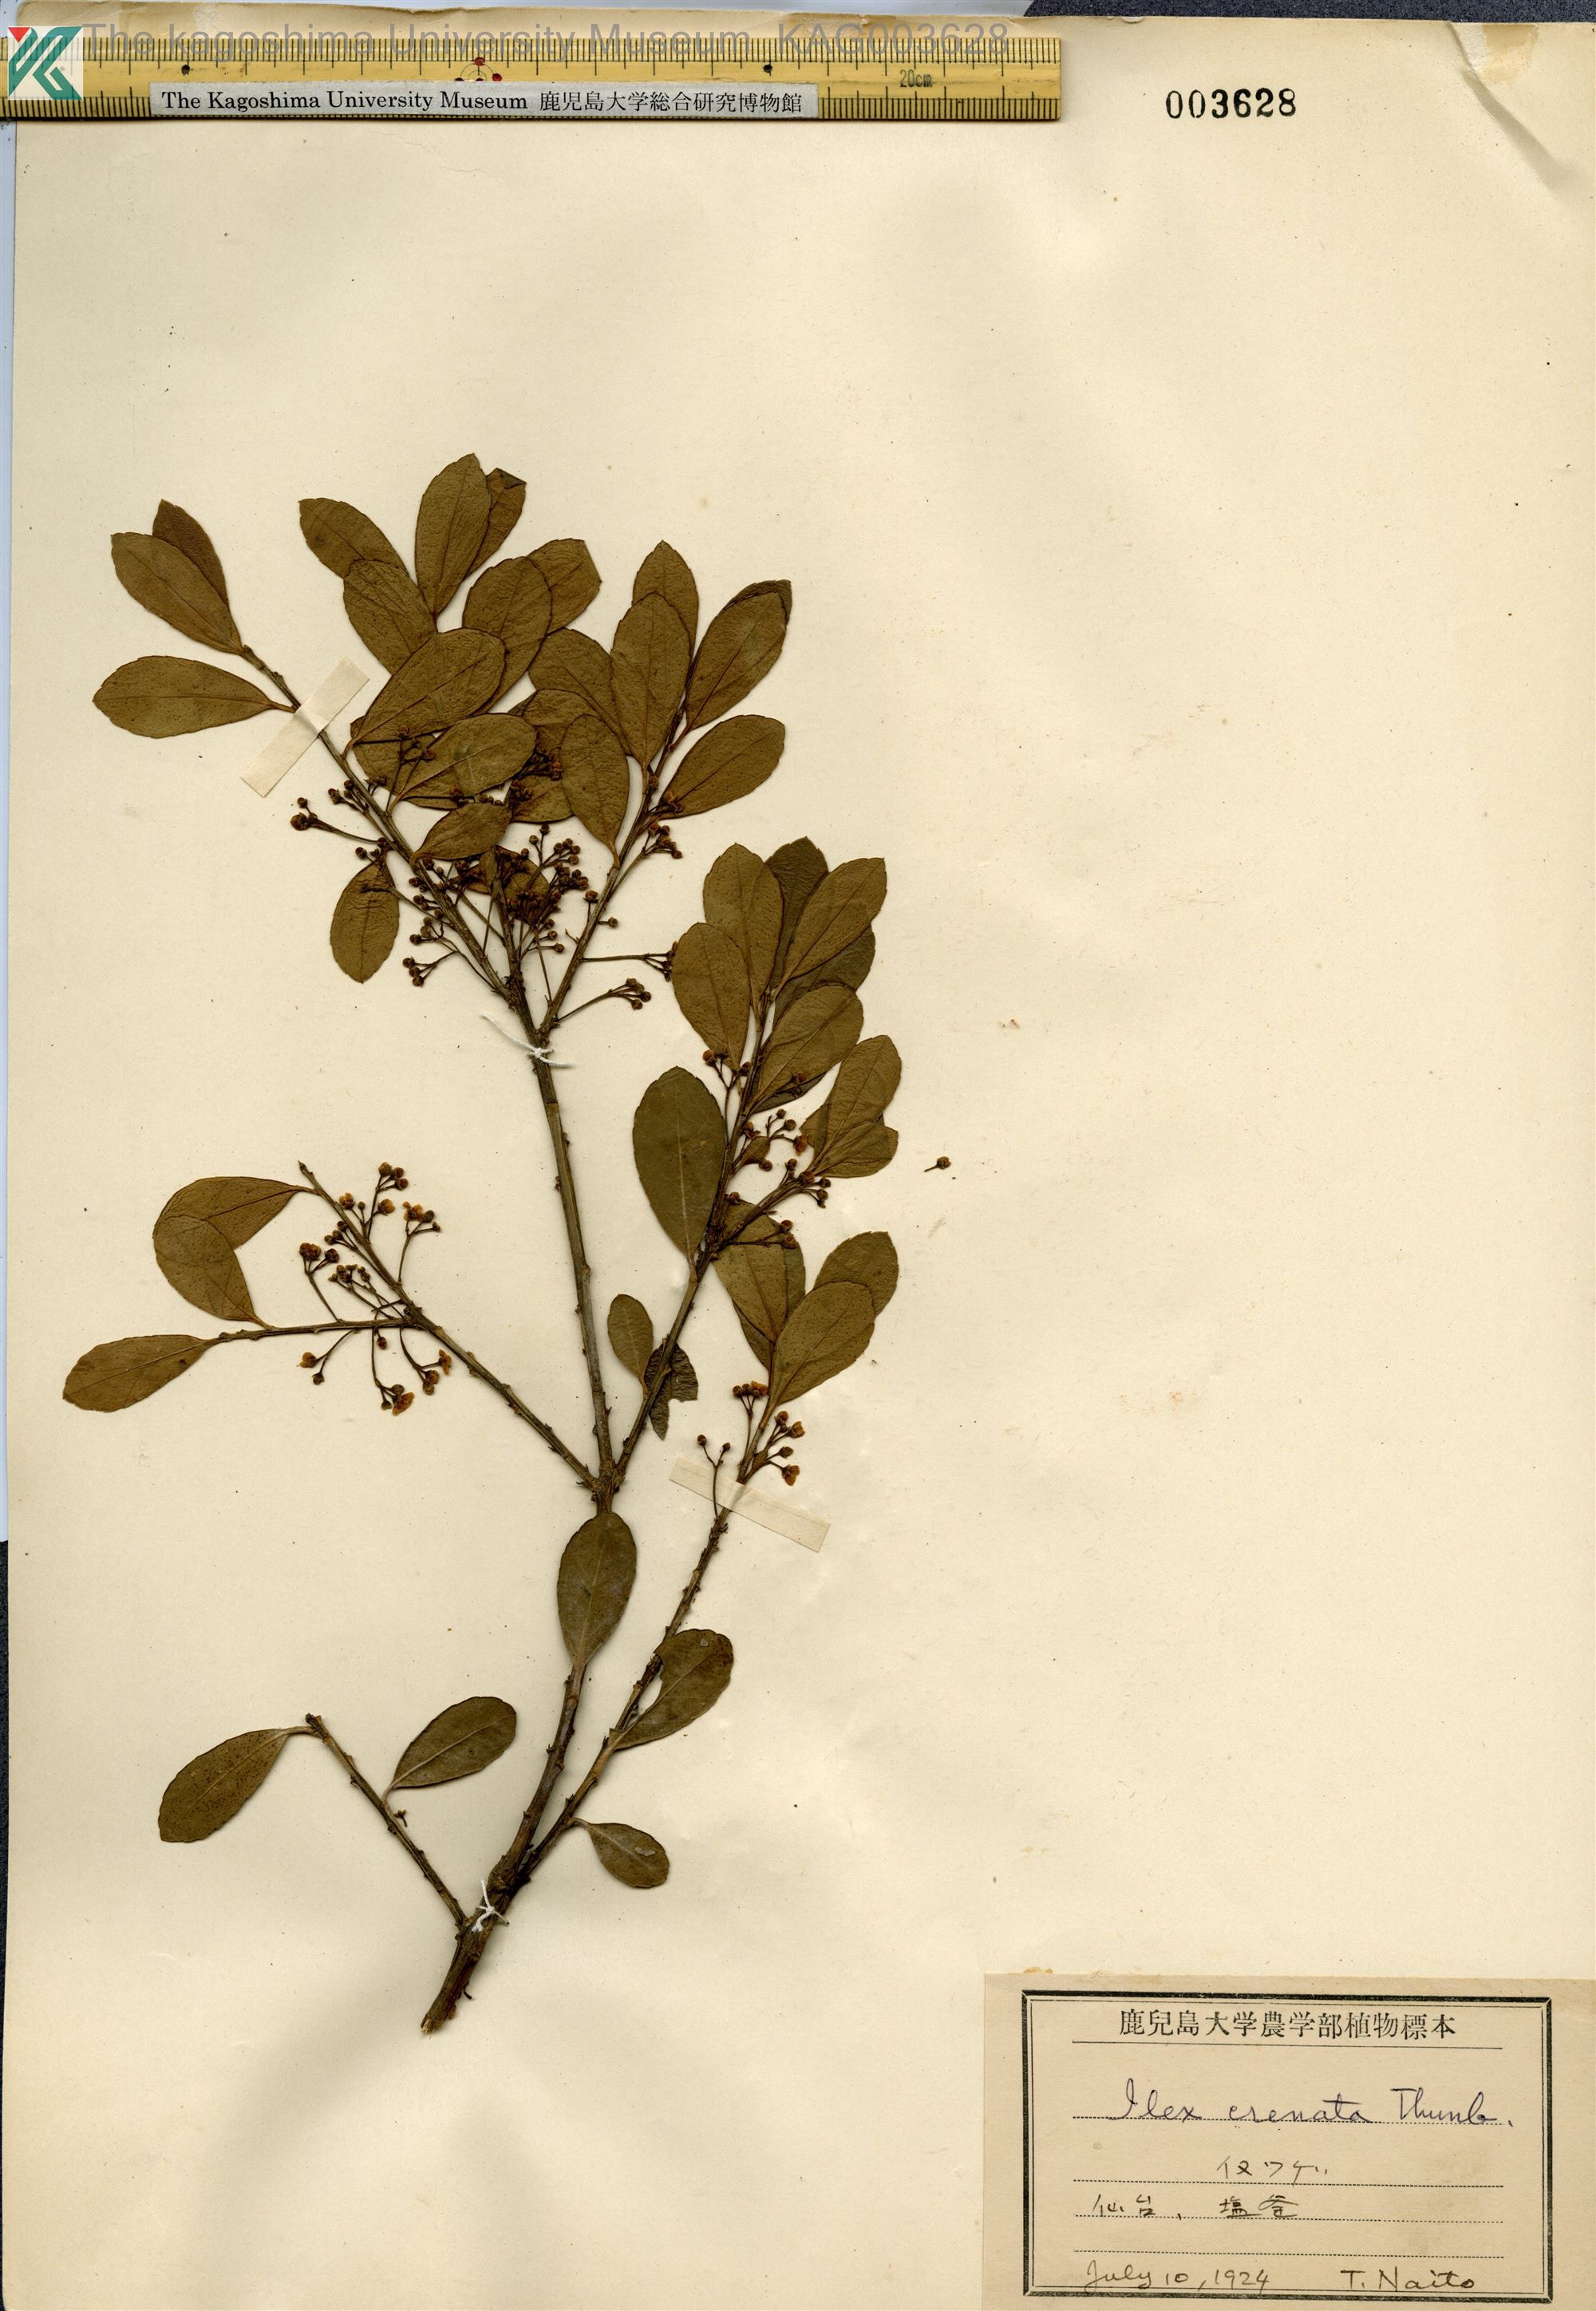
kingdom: Plantae
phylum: Tracheophyta
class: Magnoliopsida
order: Aquifoliales
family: Aquifoliaceae
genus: Ilex
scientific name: Ilex crenata
